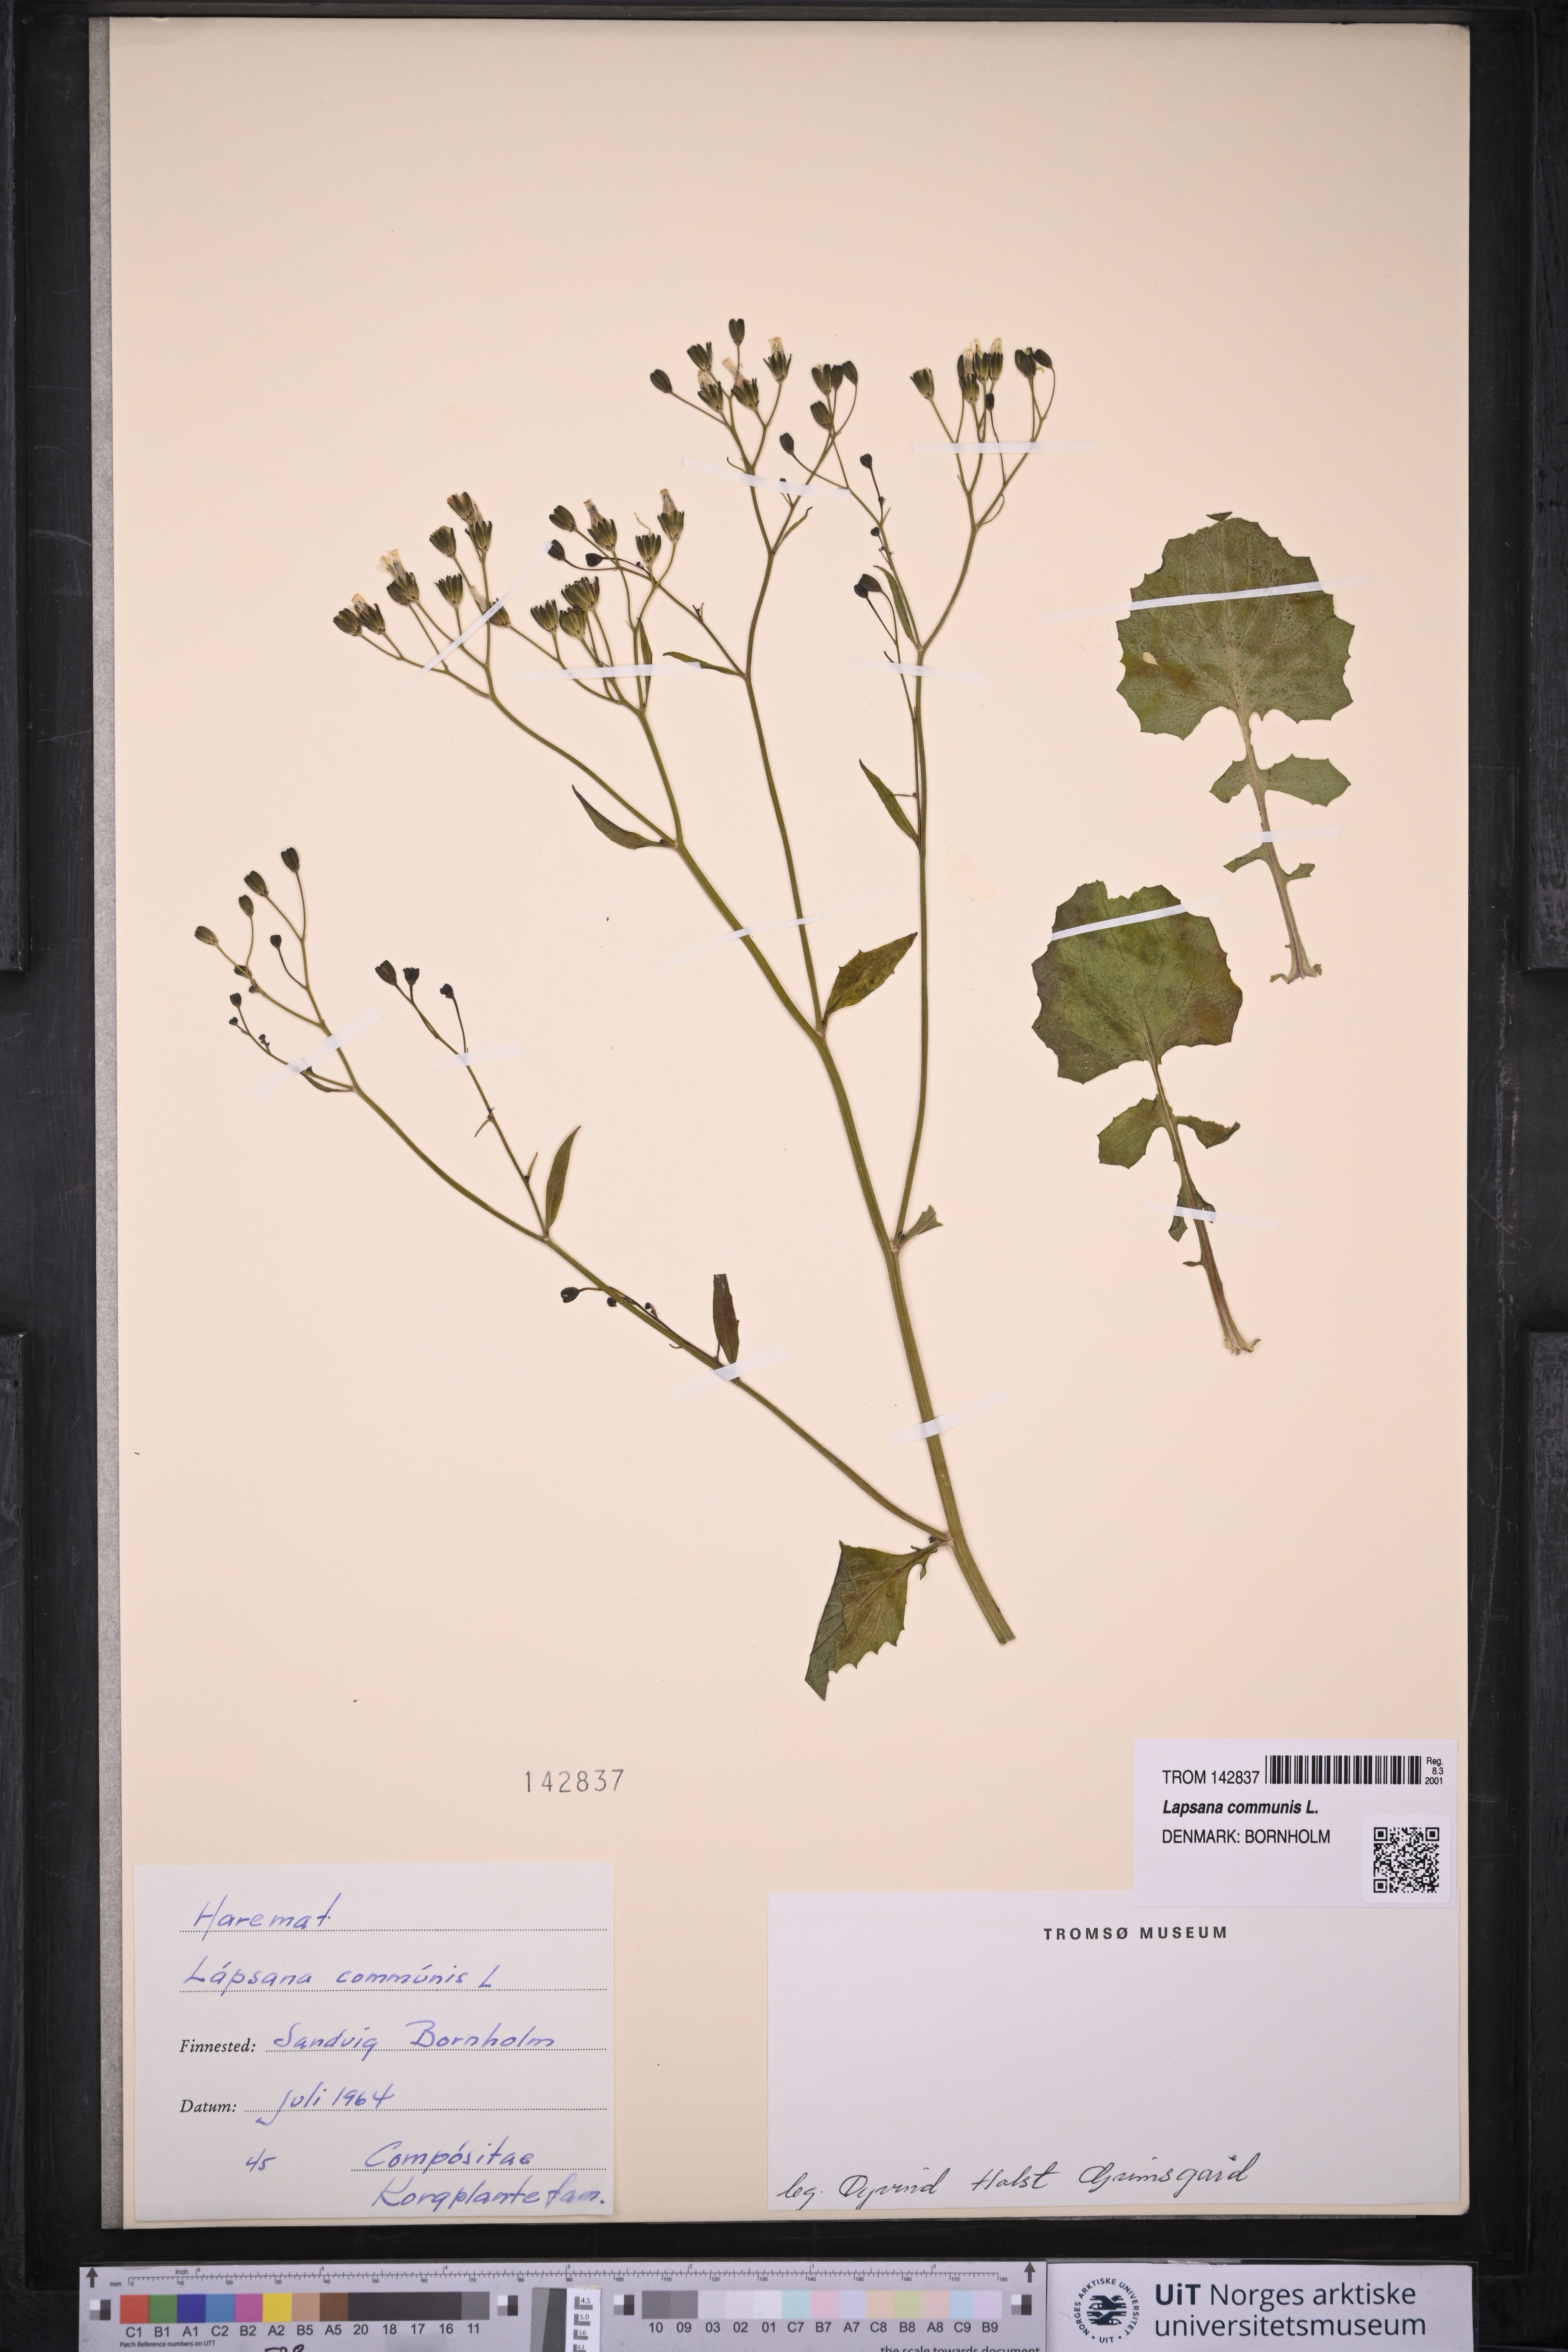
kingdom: Plantae
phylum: Tracheophyta
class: Magnoliopsida
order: Asterales
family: Asteraceae
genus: Lapsana
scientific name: Lapsana communis
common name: Nipplewort
